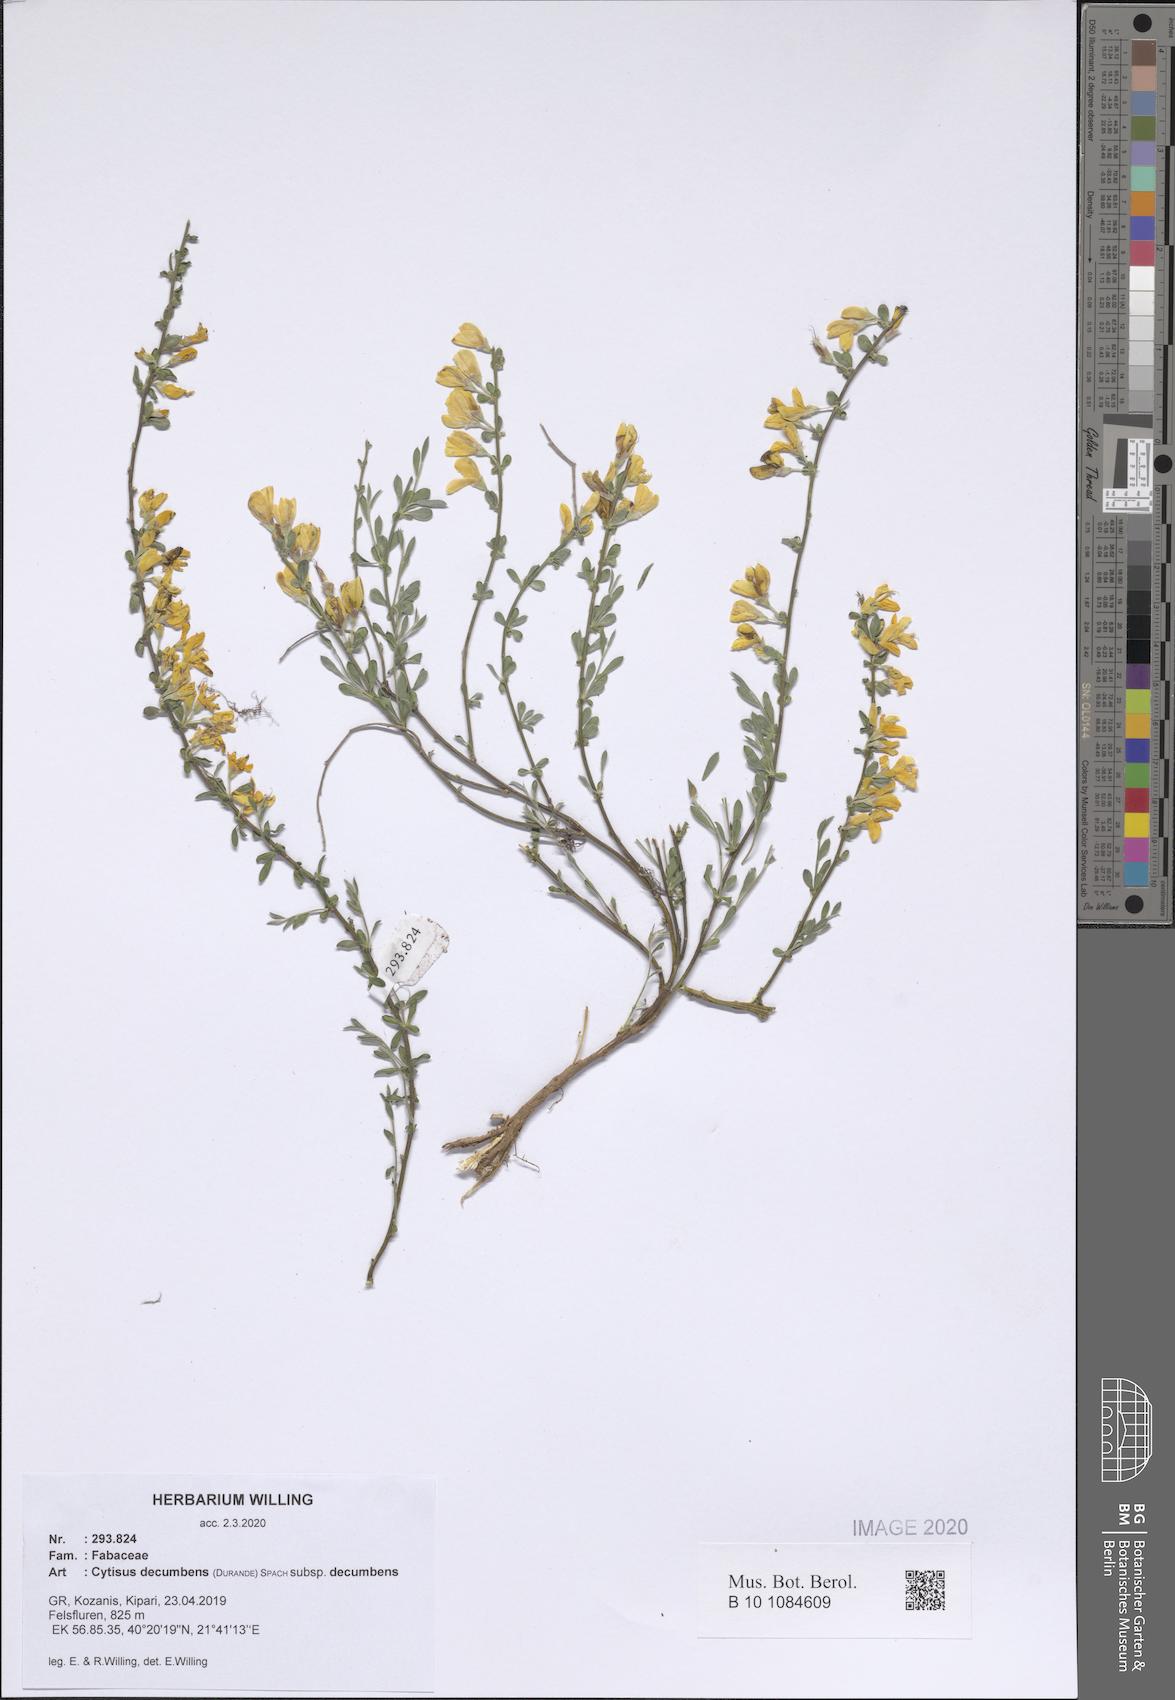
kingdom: Plantae
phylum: Tracheophyta
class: Magnoliopsida
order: Fabales
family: Fabaceae
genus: Cytisus
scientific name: Cytisus decumbens
